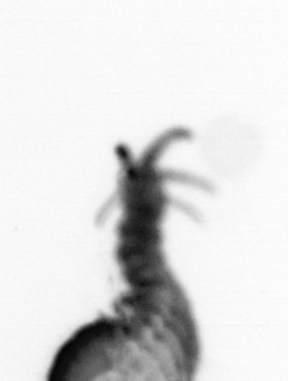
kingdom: Animalia
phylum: Annelida
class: Polychaeta
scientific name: Polychaeta
